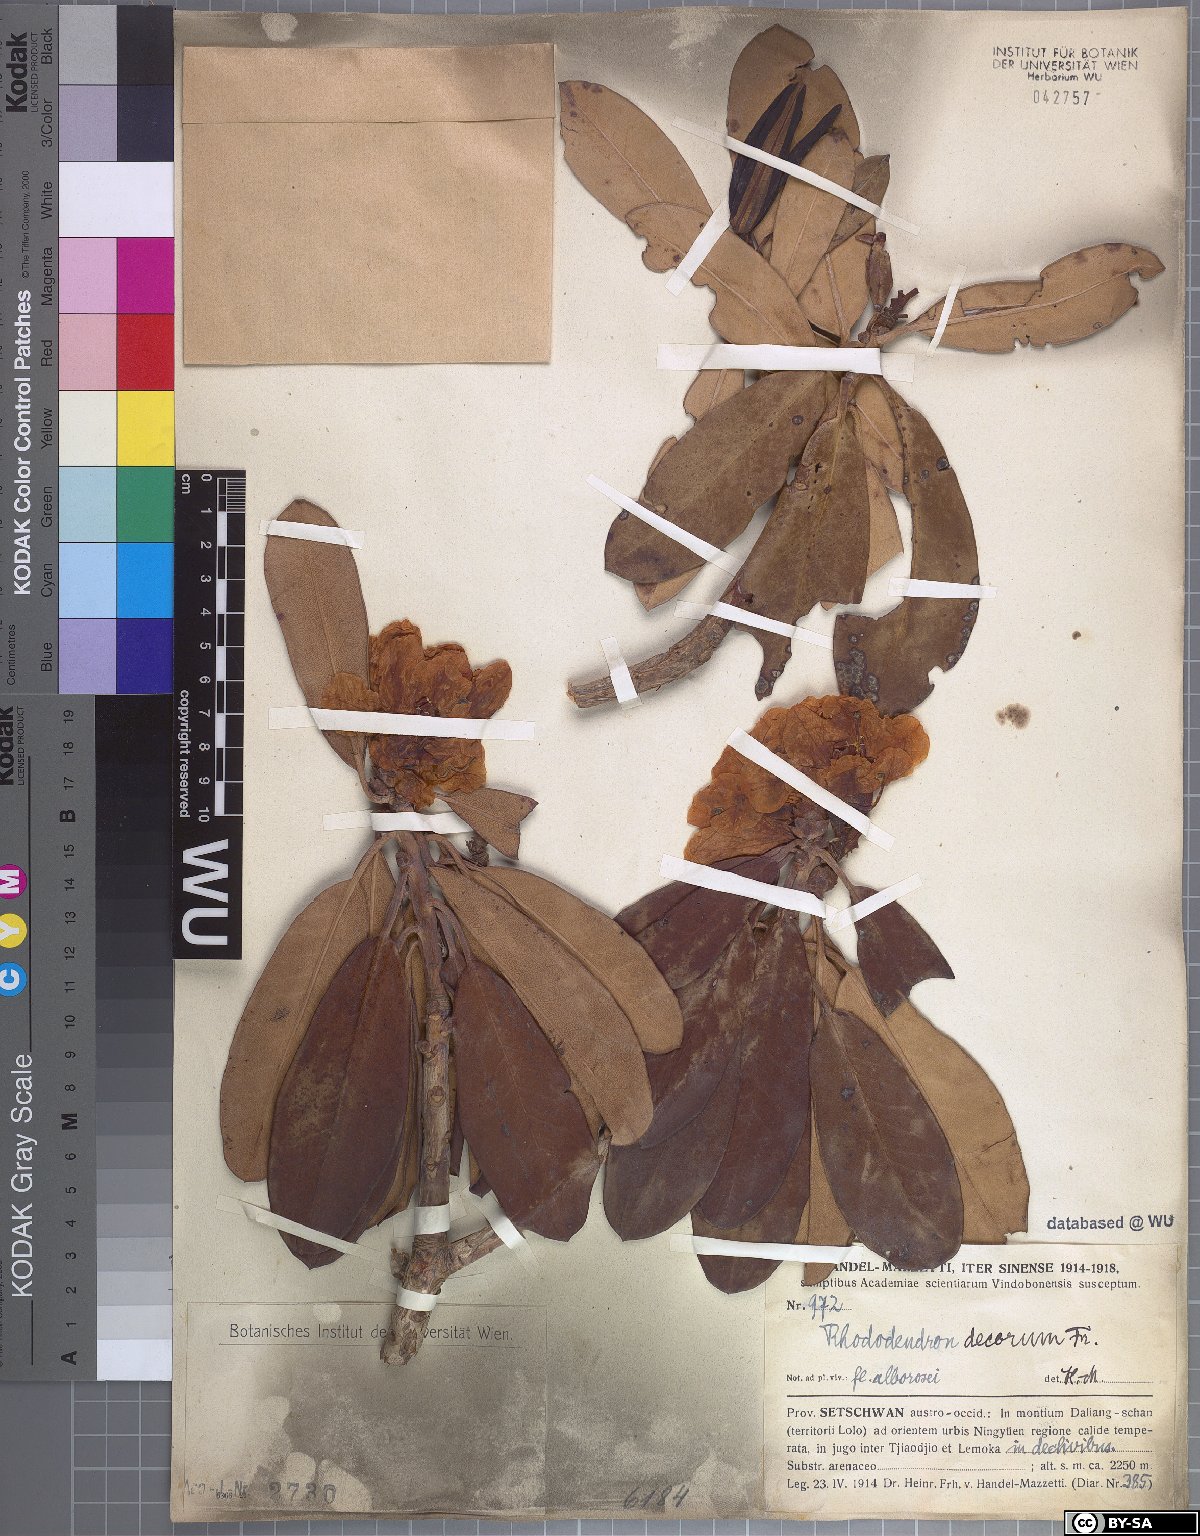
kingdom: Plantae
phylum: Tracheophyta
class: Magnoliopsida
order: Ericales
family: Ericaceae
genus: Rhododendron
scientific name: Rhododendron decorum
